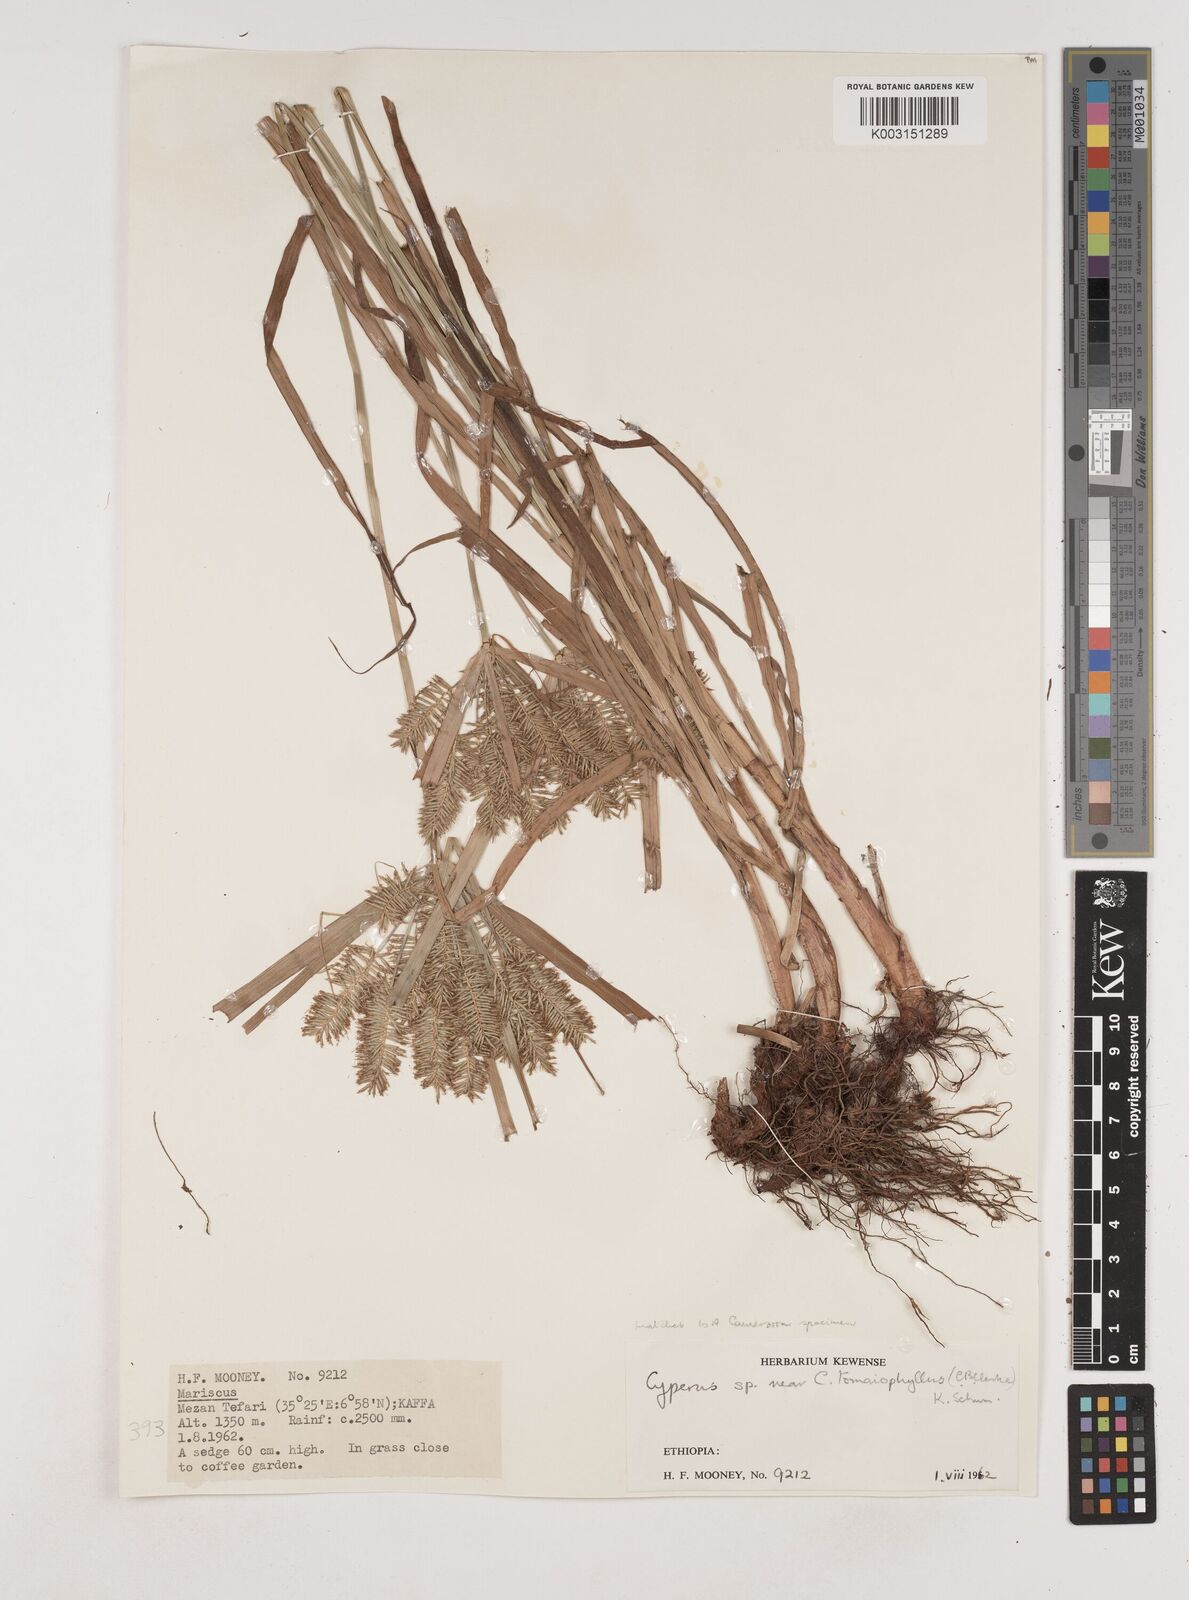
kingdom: Plantae
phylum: Tracheophyta
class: Liliopsida
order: Poales
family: Cyperaceae
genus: Cyperus
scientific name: Cyperus tomaiophyllus
